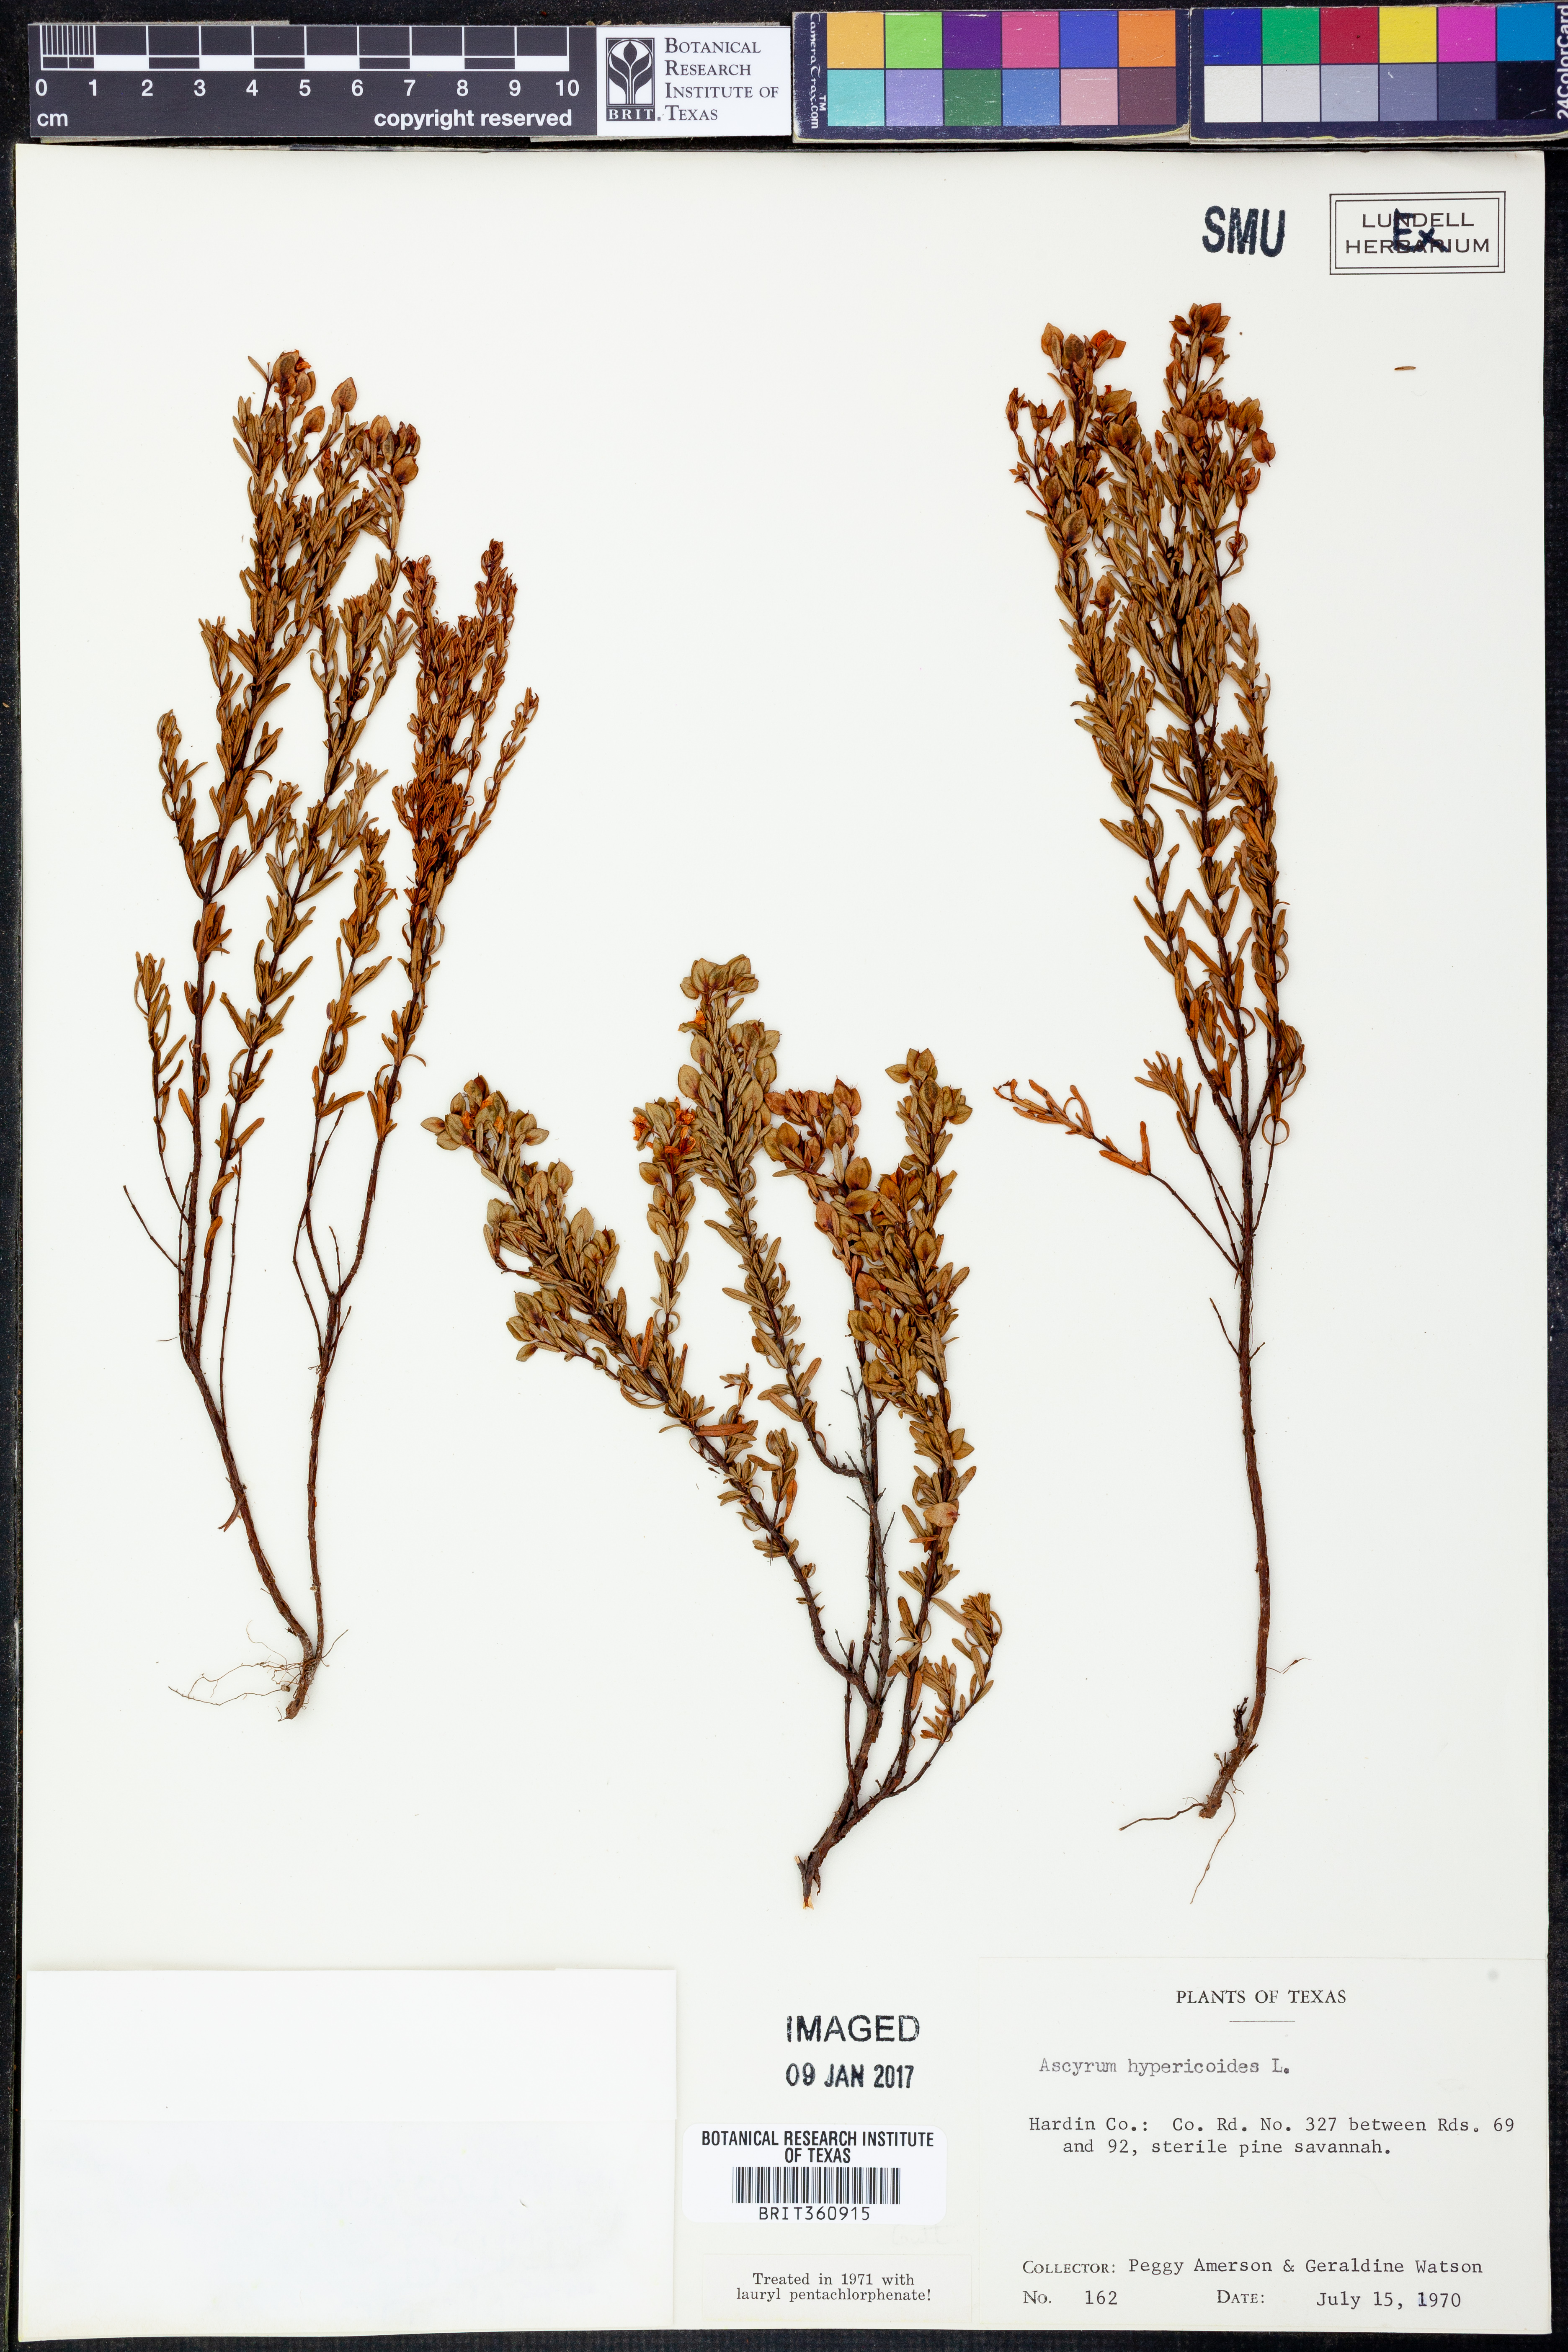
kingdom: Plantae
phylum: Tracheophyta
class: Magnoliopsida
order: Malpighiales
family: Hypericaceae
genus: Hypericum
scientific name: Hypericum hypericoides
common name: St. andrew's cross
